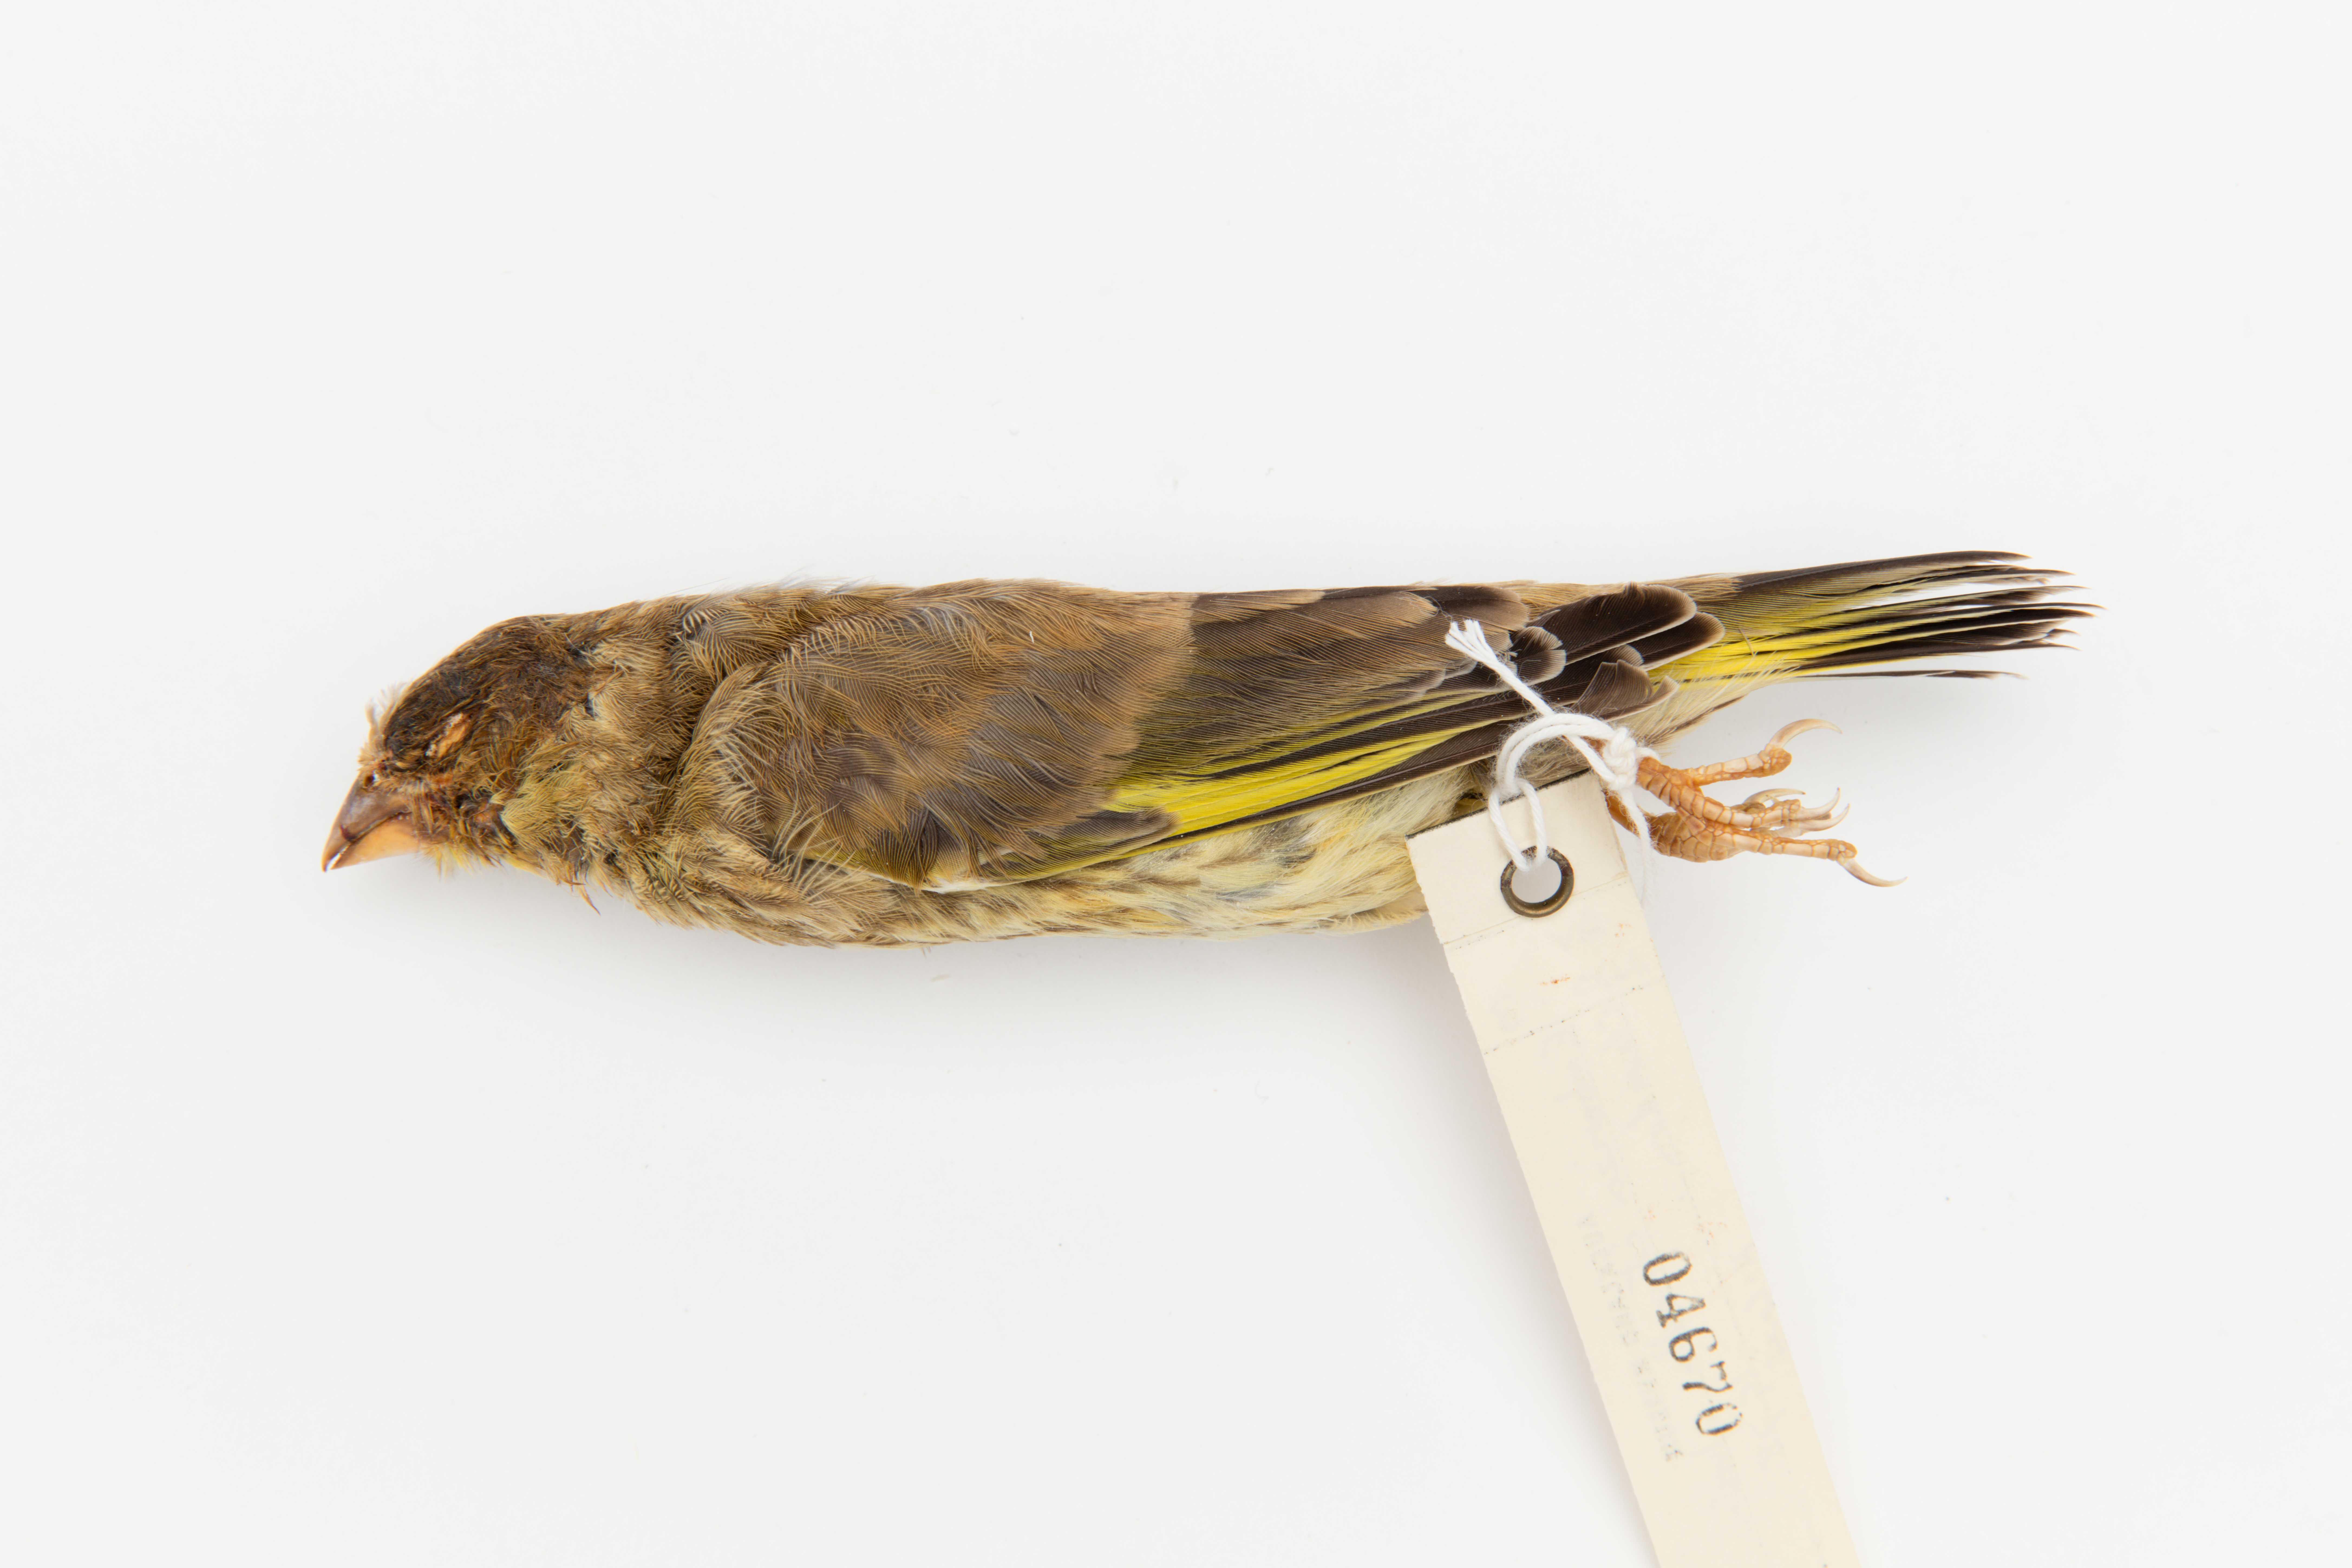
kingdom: Animalia
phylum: Chordata
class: Aves
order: Passeriformes
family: Emberizidae
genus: Emberiza
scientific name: Emberiza citrinella
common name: Yellowhammer
